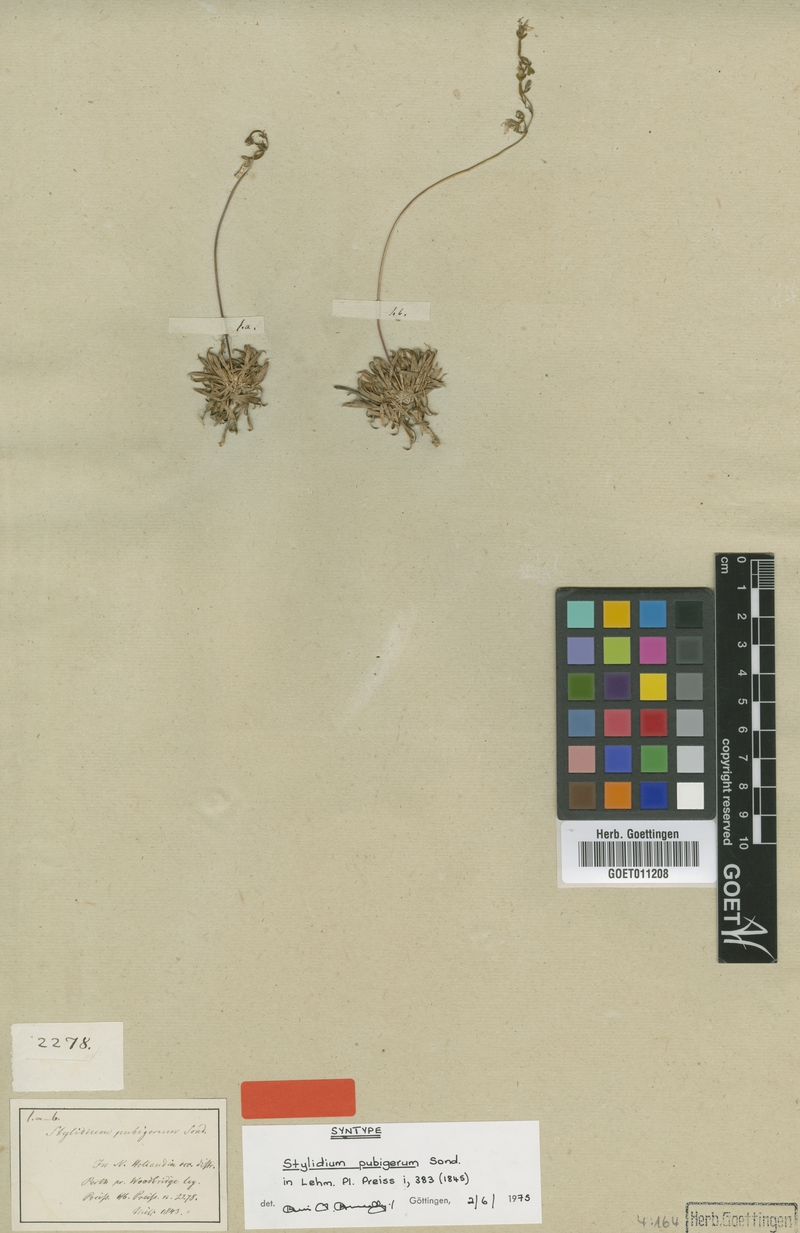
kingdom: Plantae
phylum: Tracheophyta
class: Magnoliopsida
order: Asterales
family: Stylidiaceae
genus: Stylidium
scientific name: Stylidium pubigerum
